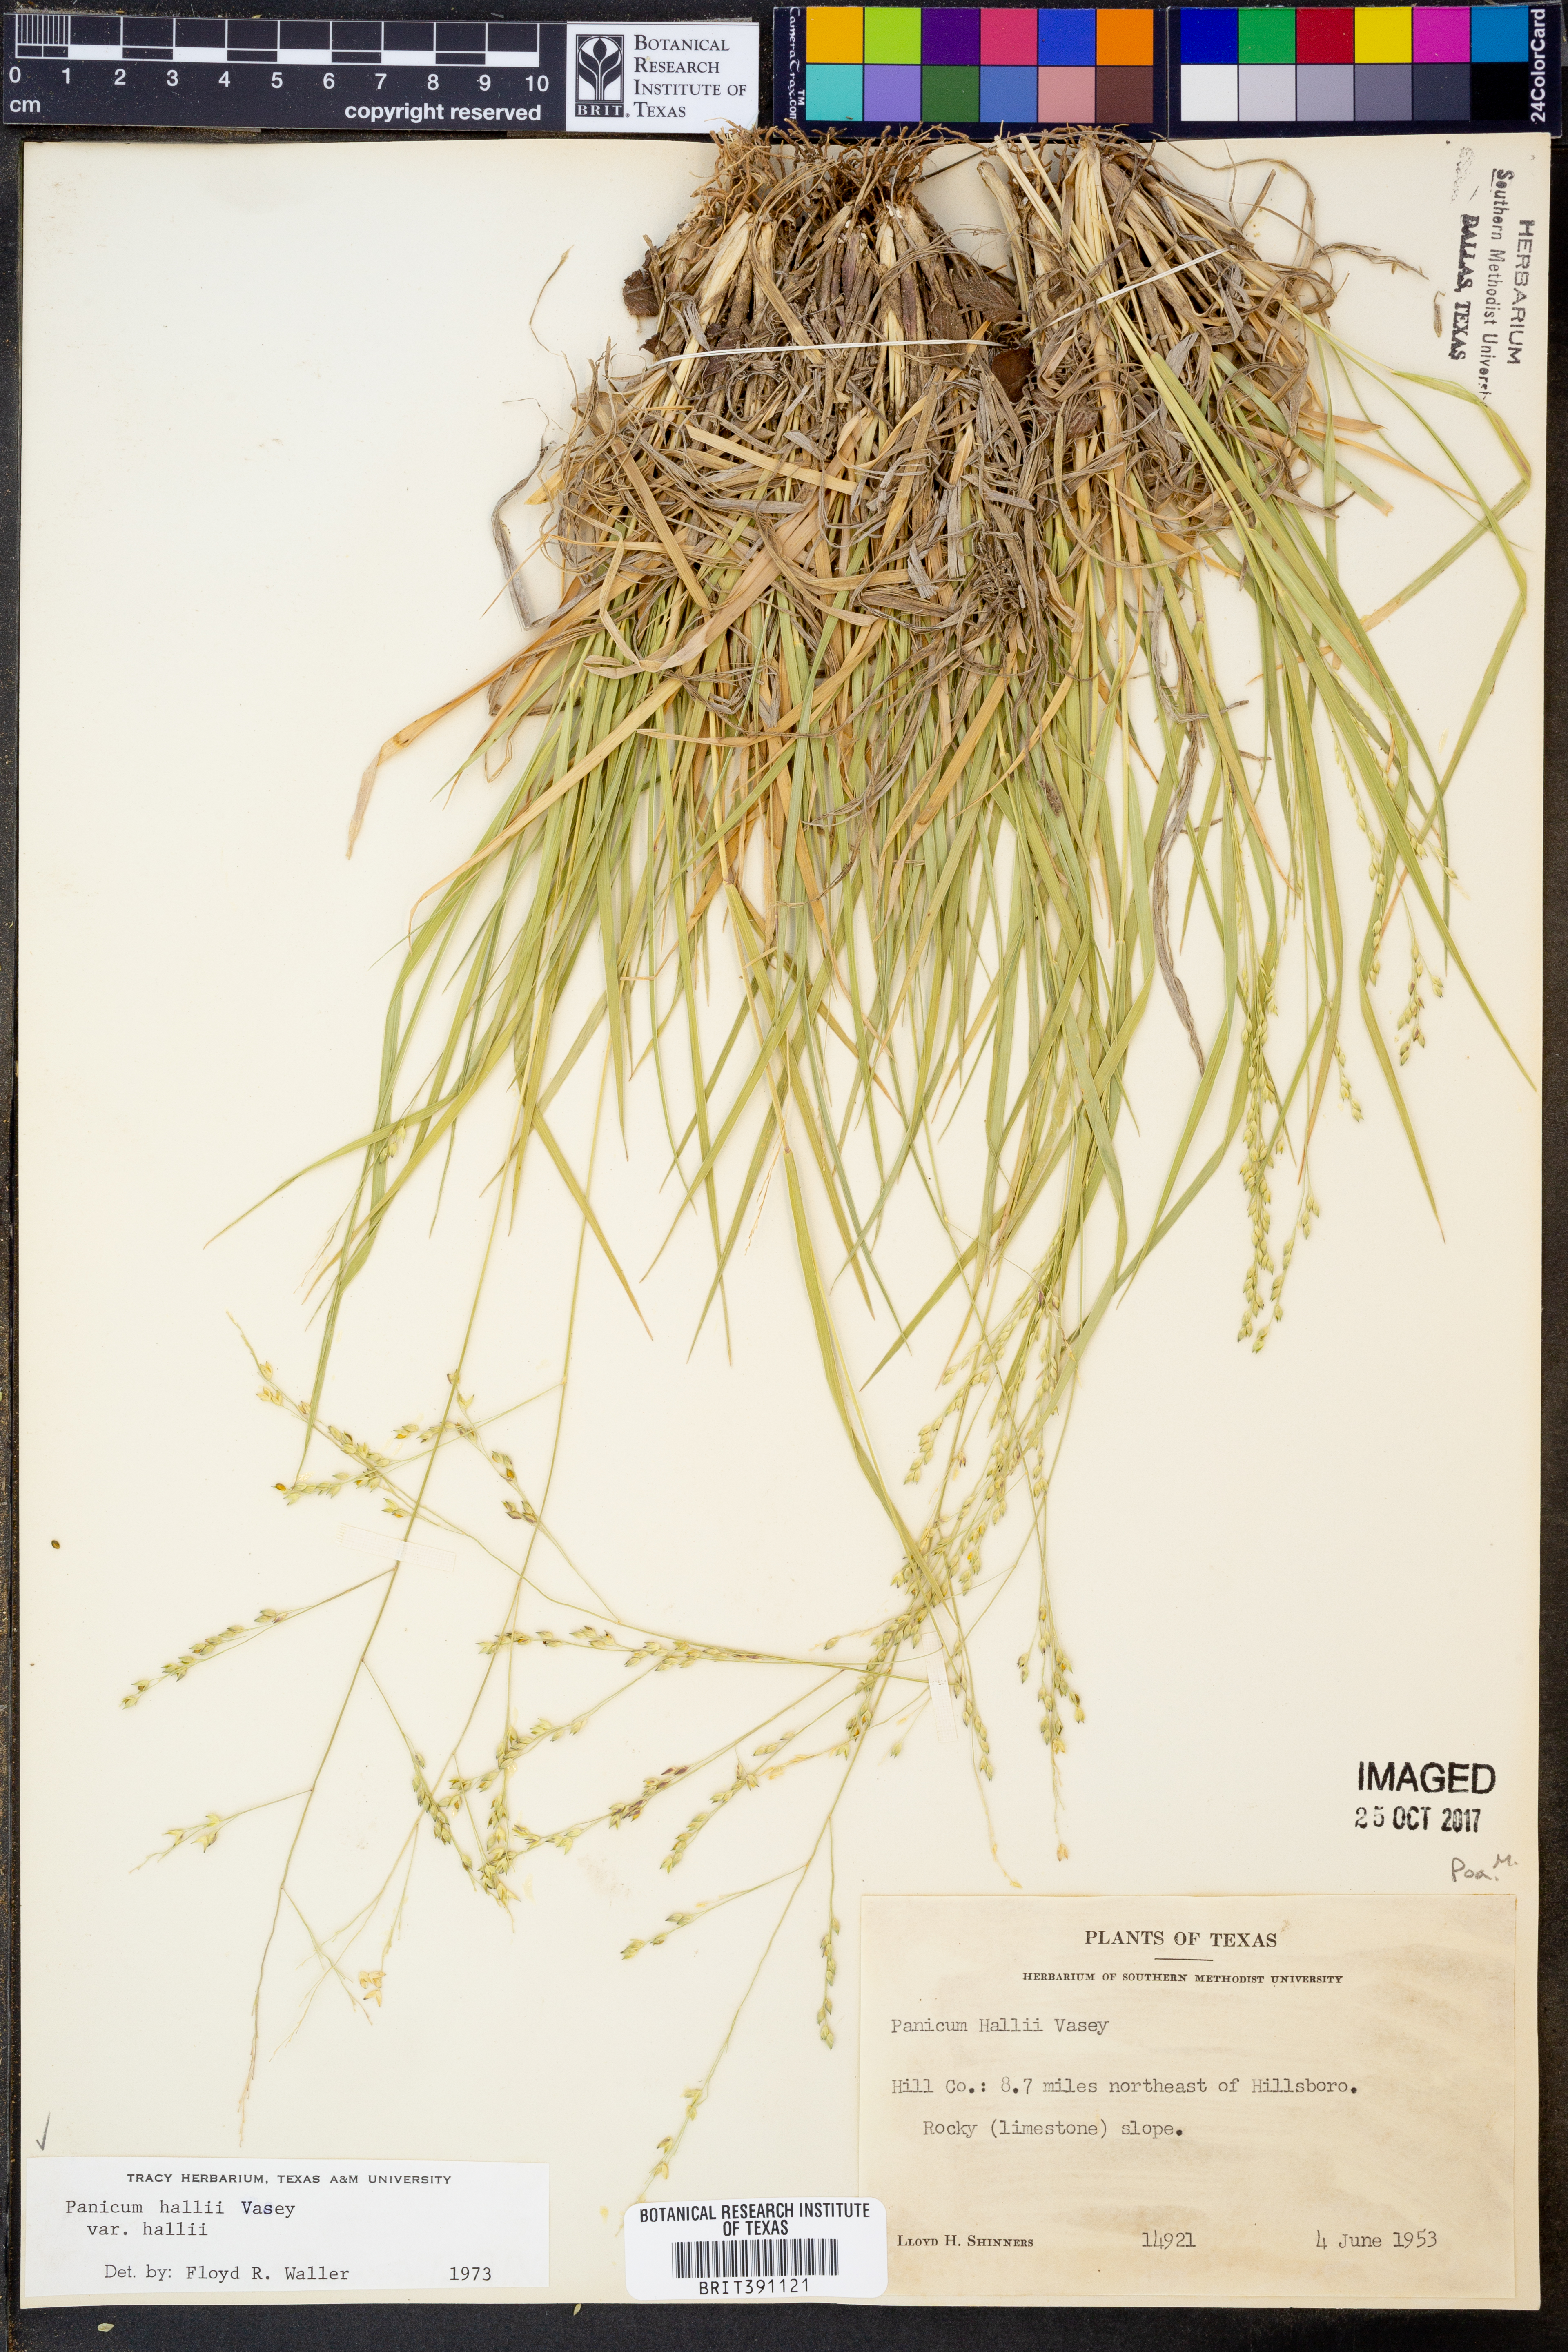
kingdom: Plantae
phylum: Tracheophyta
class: Liliopsida
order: Poales
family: Poaceae
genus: Panicum
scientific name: Panicum hallii
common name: Hall's witchgrass
